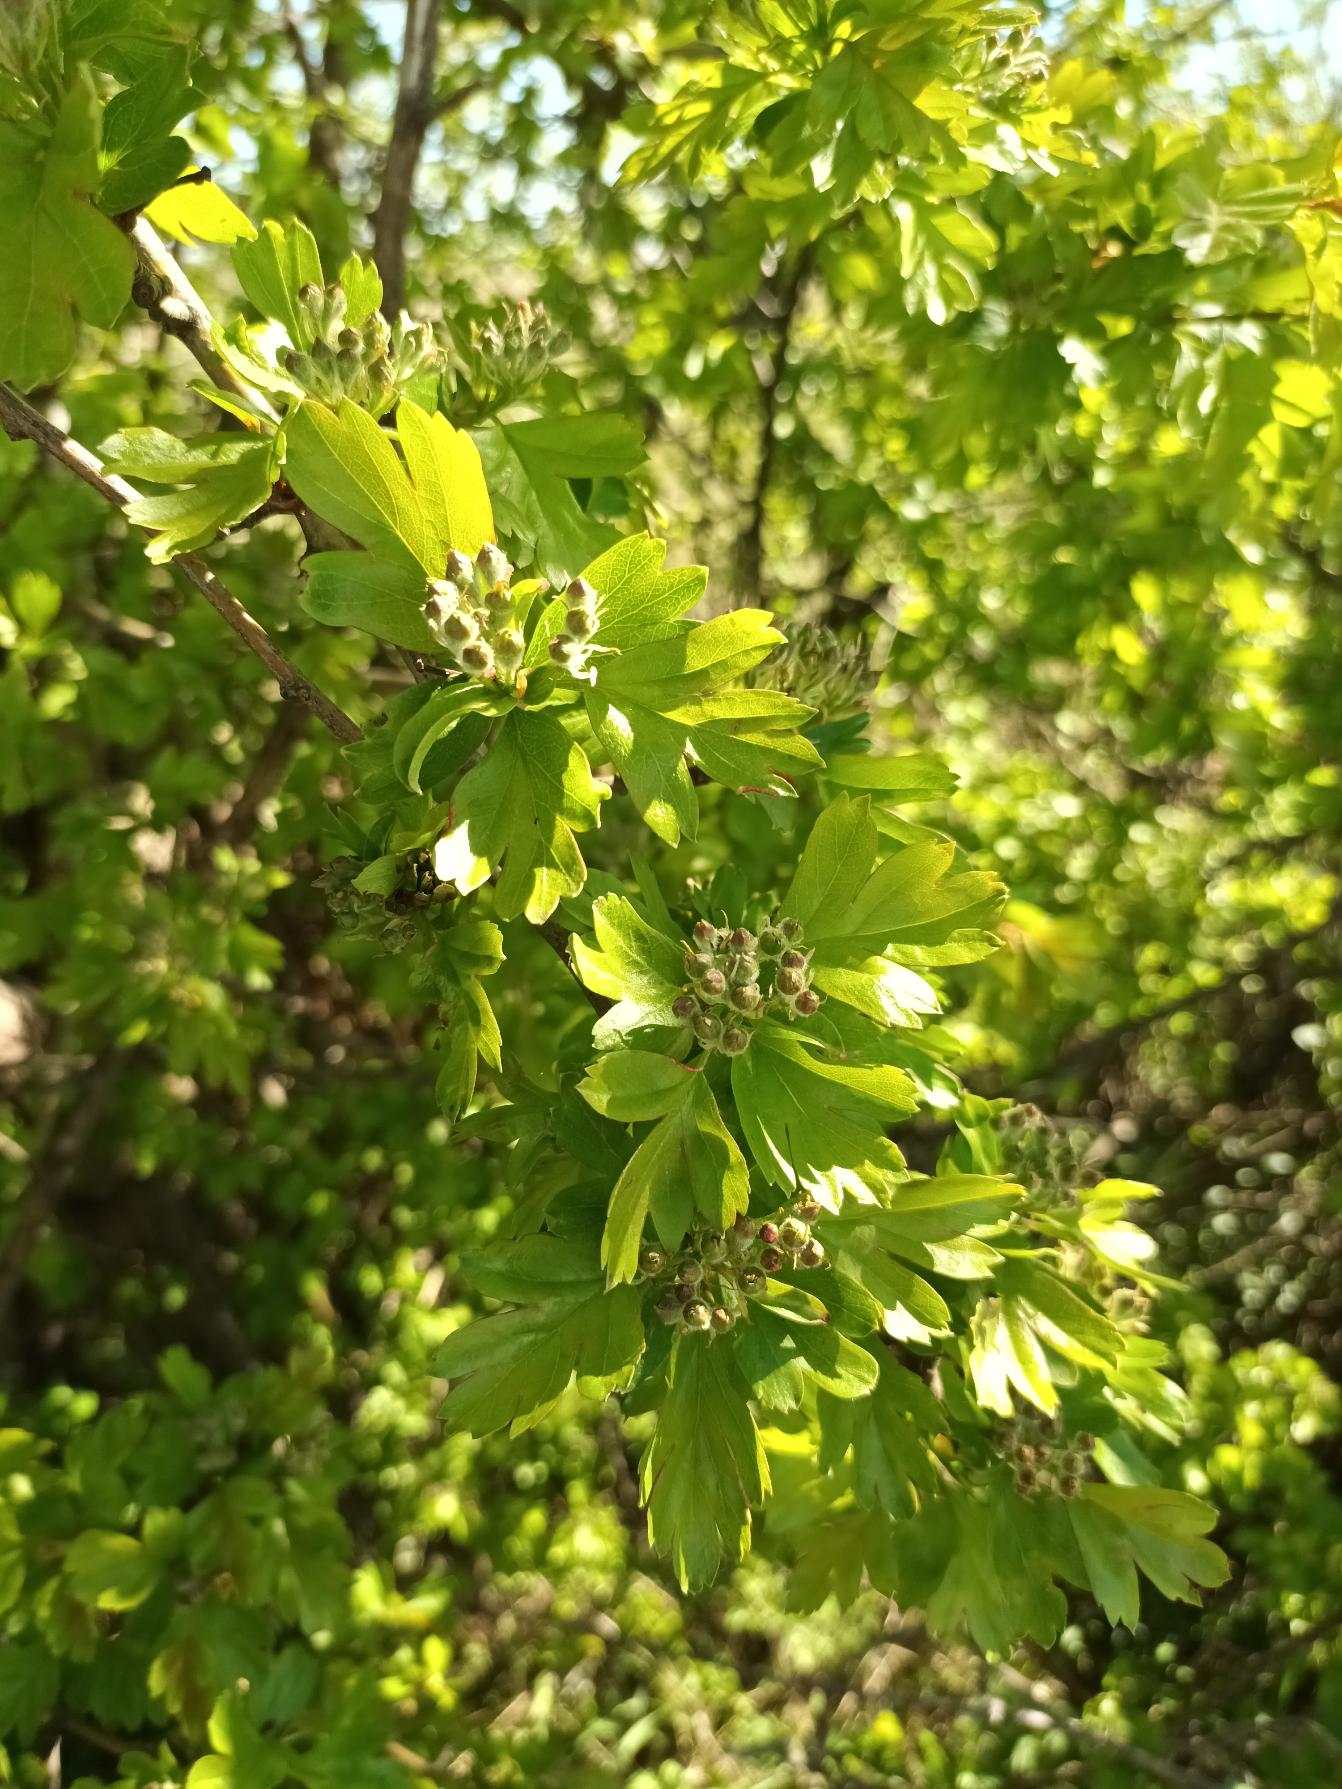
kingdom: Plantae
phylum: Tracheophyta
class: Magnoliopsida
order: Rosales
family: Rosaceae
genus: Crataegus
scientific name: Crataegus monogyna
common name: Engriflet hvidtjørn
